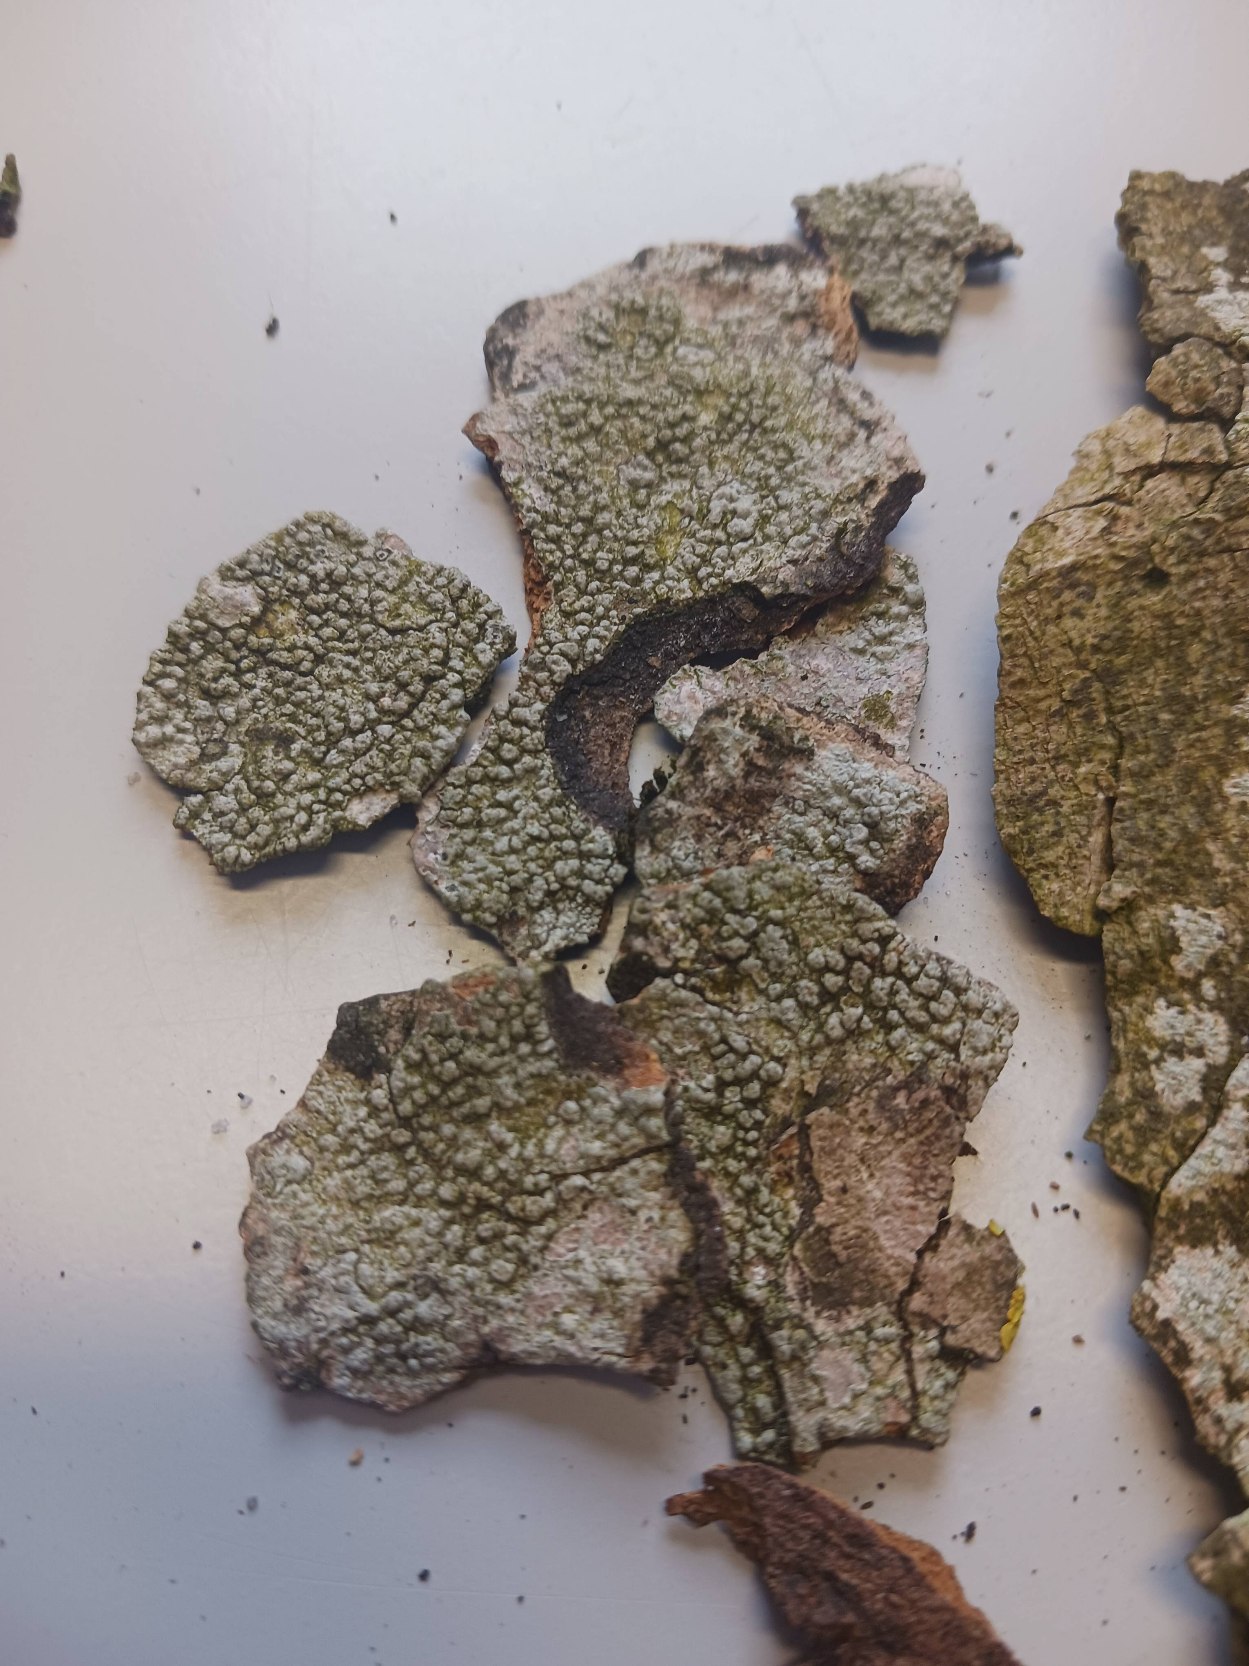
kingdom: Fungi
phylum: Ascomycota
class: Lecanoromycetes
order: Pertusariales
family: Pertusariaceae
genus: Pertusaria
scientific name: Pertusaria pertusa
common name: Almindelig prikvortelav
